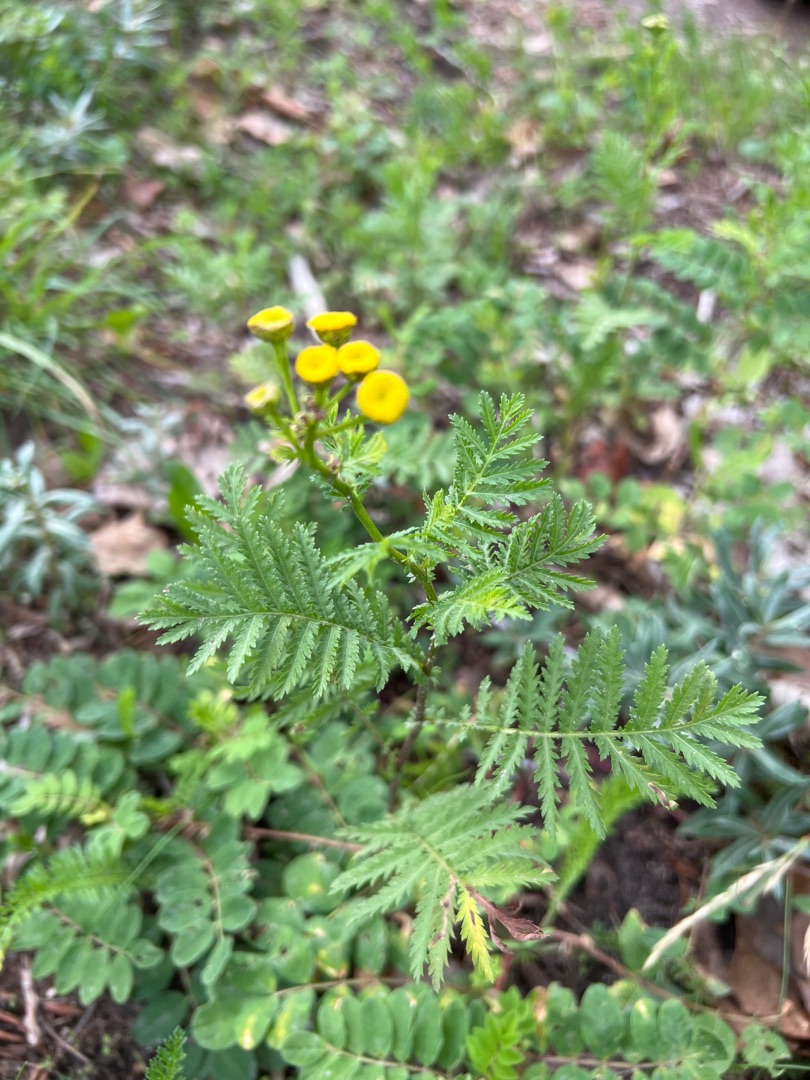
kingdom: Plantae
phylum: Tracheophyta
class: Magnoliopsida
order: Asterales
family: Asteraceae
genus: Tanacetum
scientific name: Tanacetum vulgare
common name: Rejnfan
